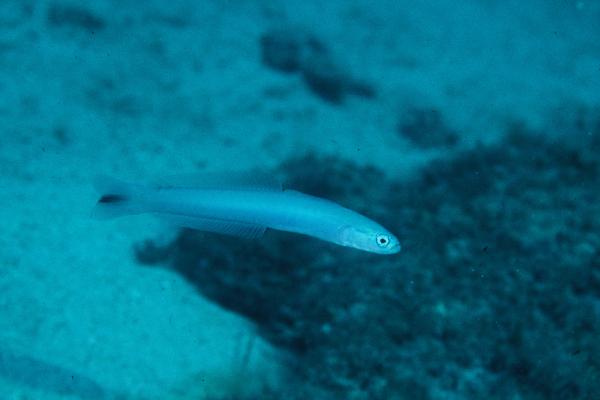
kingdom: Animalia
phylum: Chordata
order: Perciformes
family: Microdesmidae
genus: Ptereleotris
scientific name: Ptereleotris heteroptera
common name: Blacktail goby
